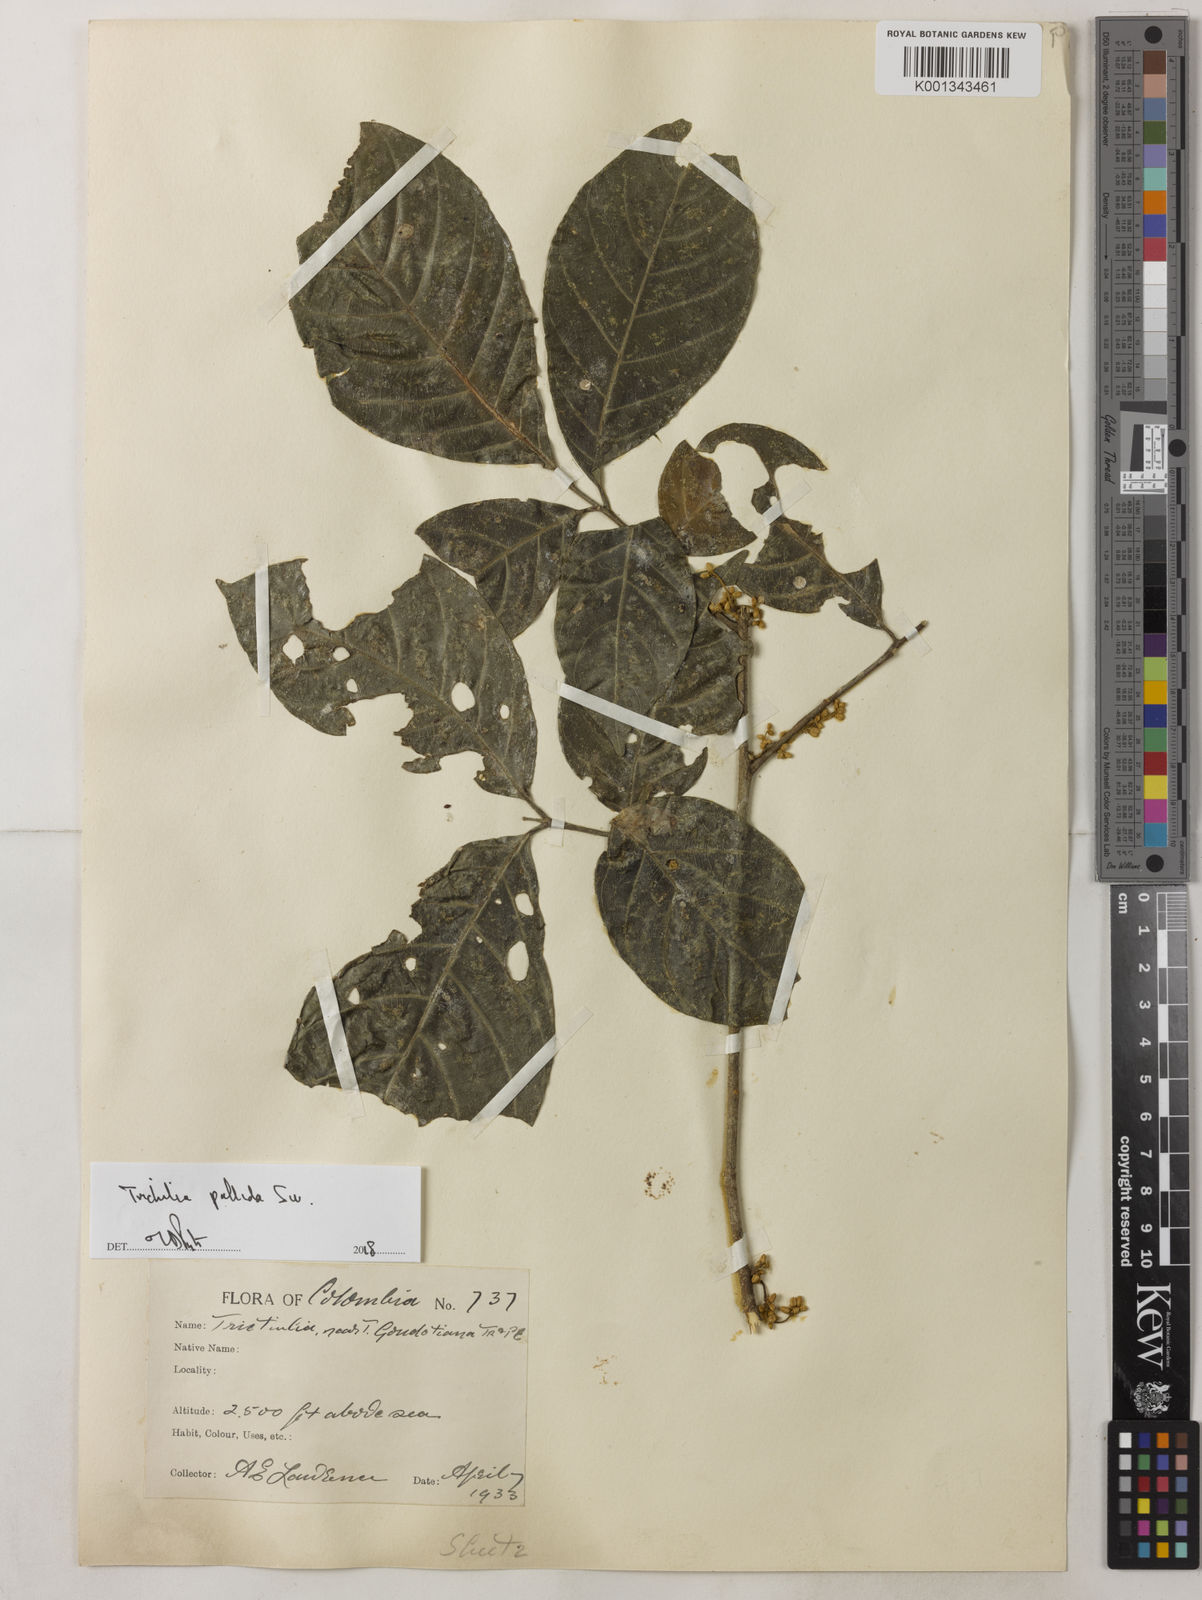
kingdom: Plantae
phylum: Tracheophyta
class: Magnoliopsida
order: Sapindales
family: Meliaceae
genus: Trichilia
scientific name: Trichilia pallida
